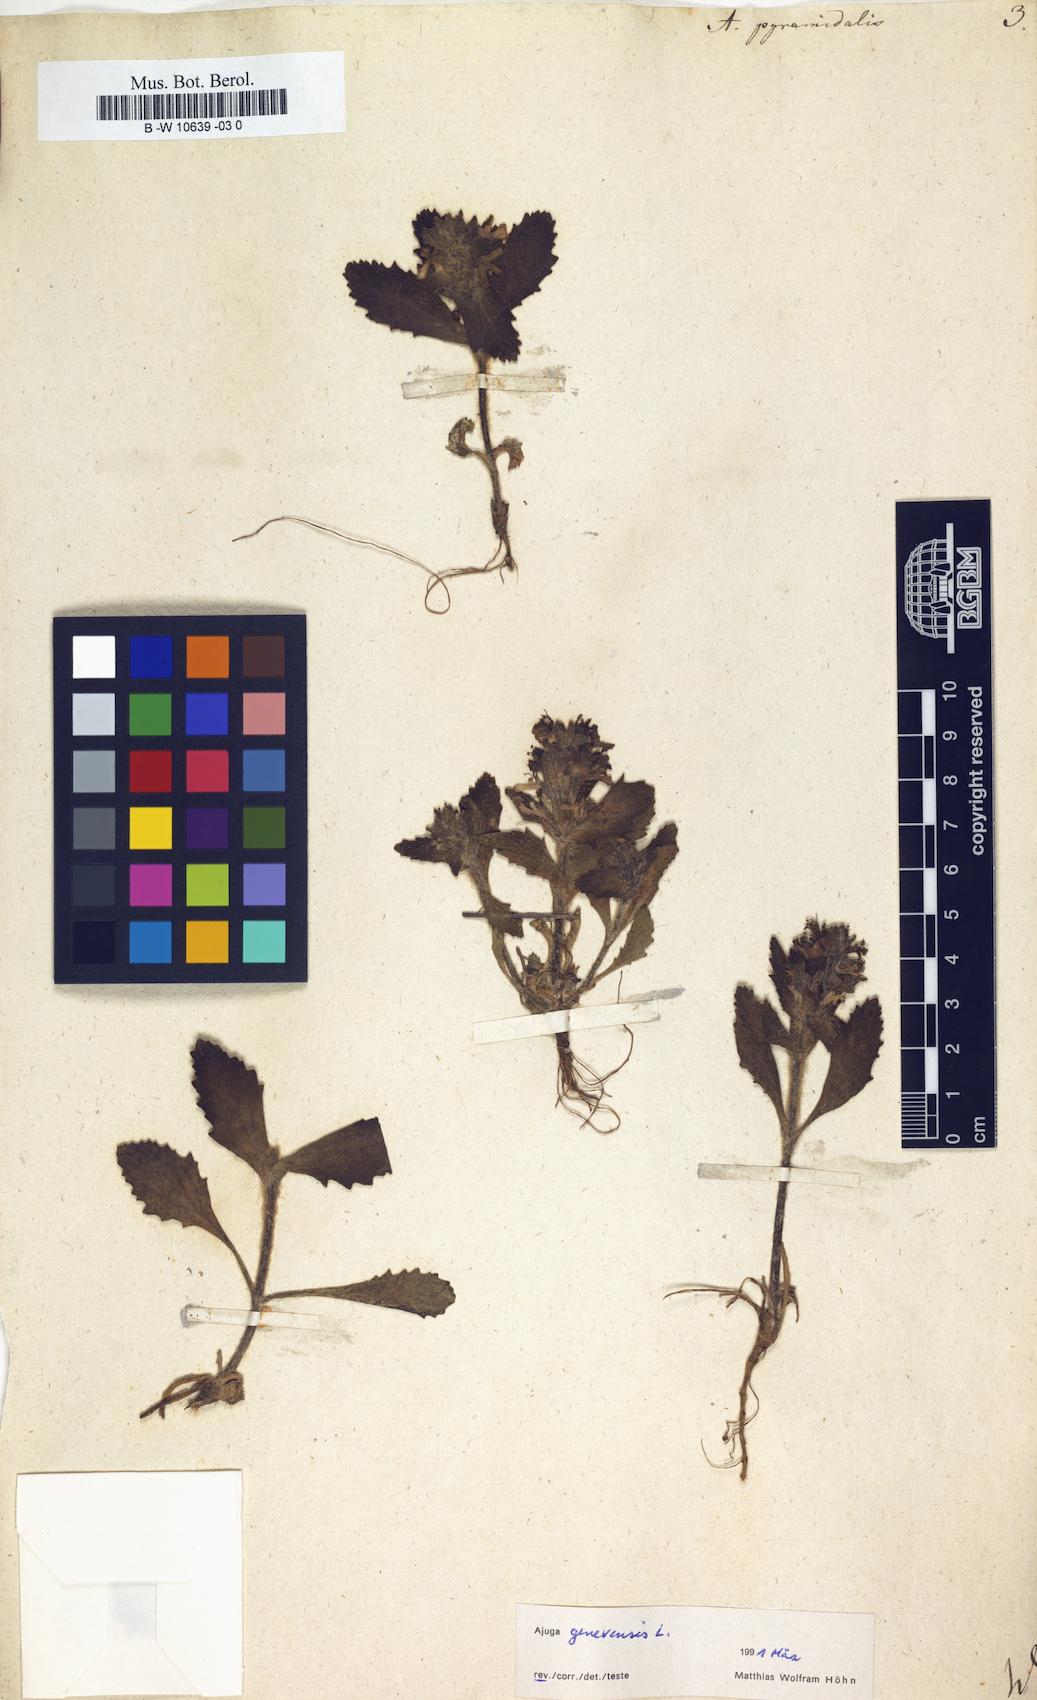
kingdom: Plantae
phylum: Tracheophyta
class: Magnoliopsida
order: Lamiales
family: Lamiaceae
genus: Ajuga
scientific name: Ajuga pyramidalis
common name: Pyramid bugle
